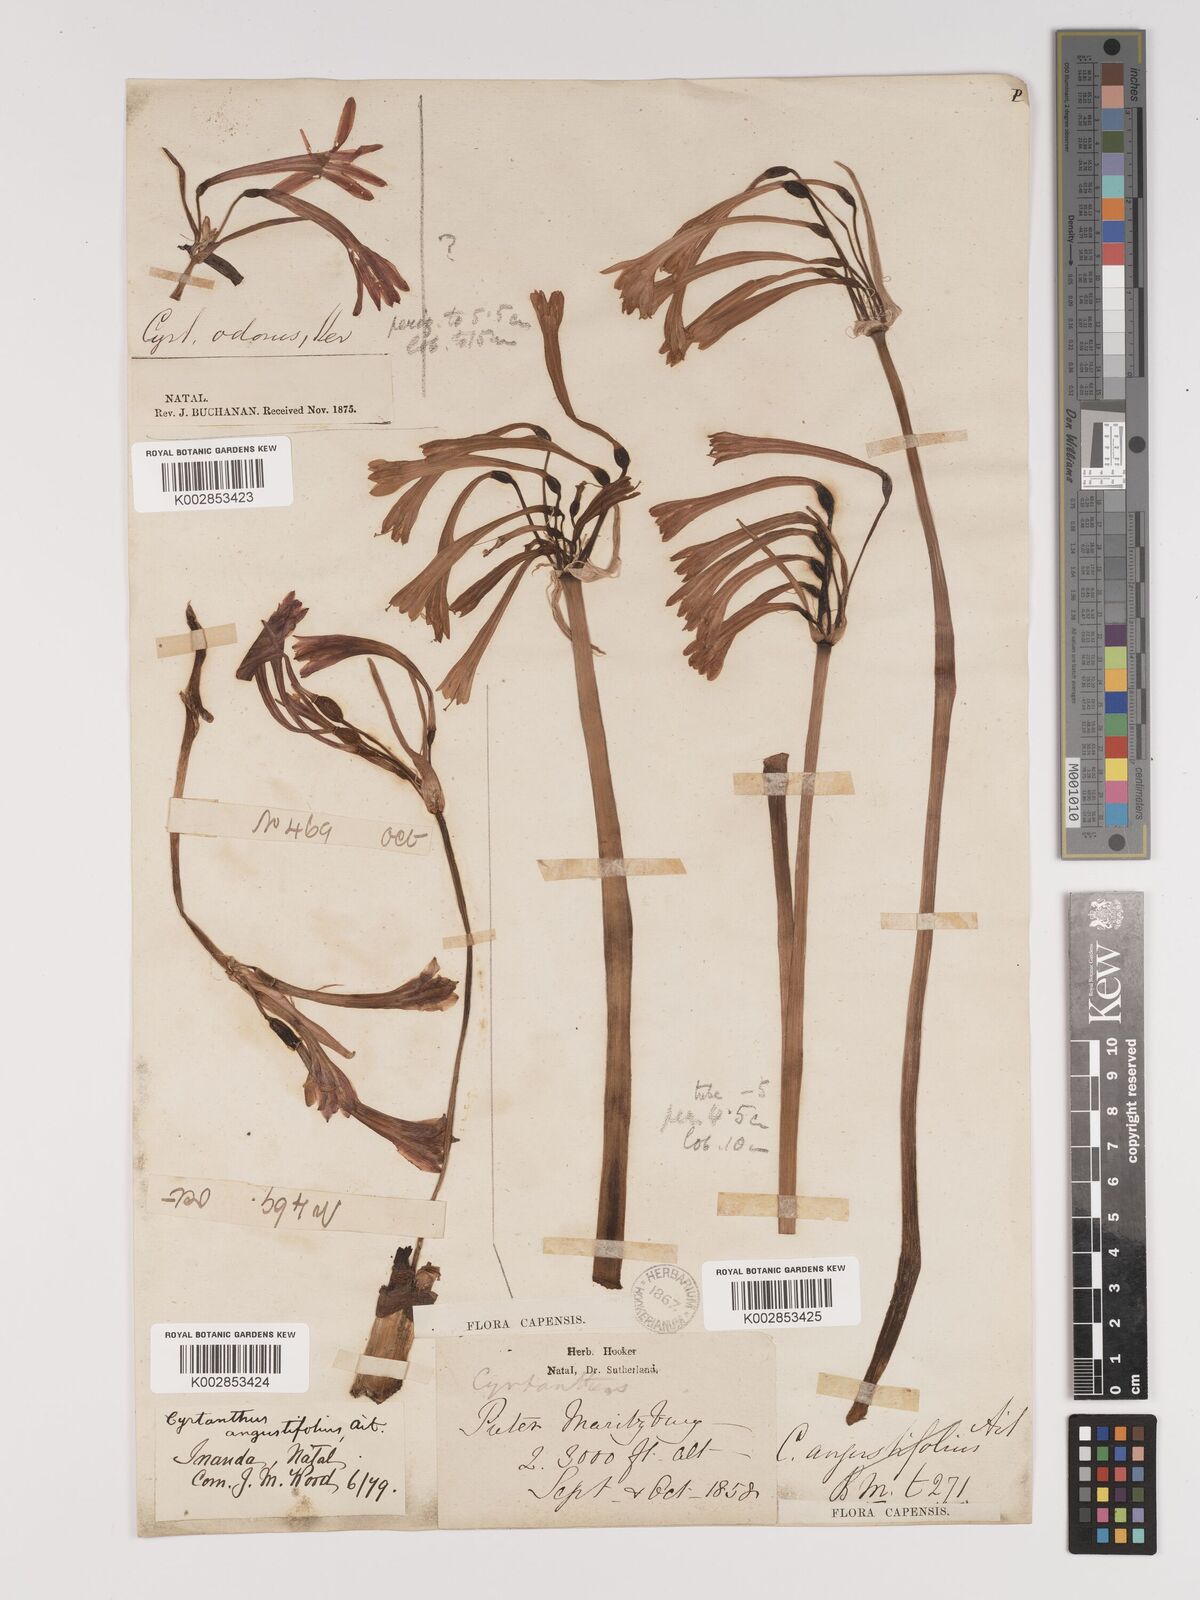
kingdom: Plantae
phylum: Tracheophyta
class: Liliopsida
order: Asparagales
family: Amaryllidaceae
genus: Cyrtanthus
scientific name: Cyrtanthus contractus
